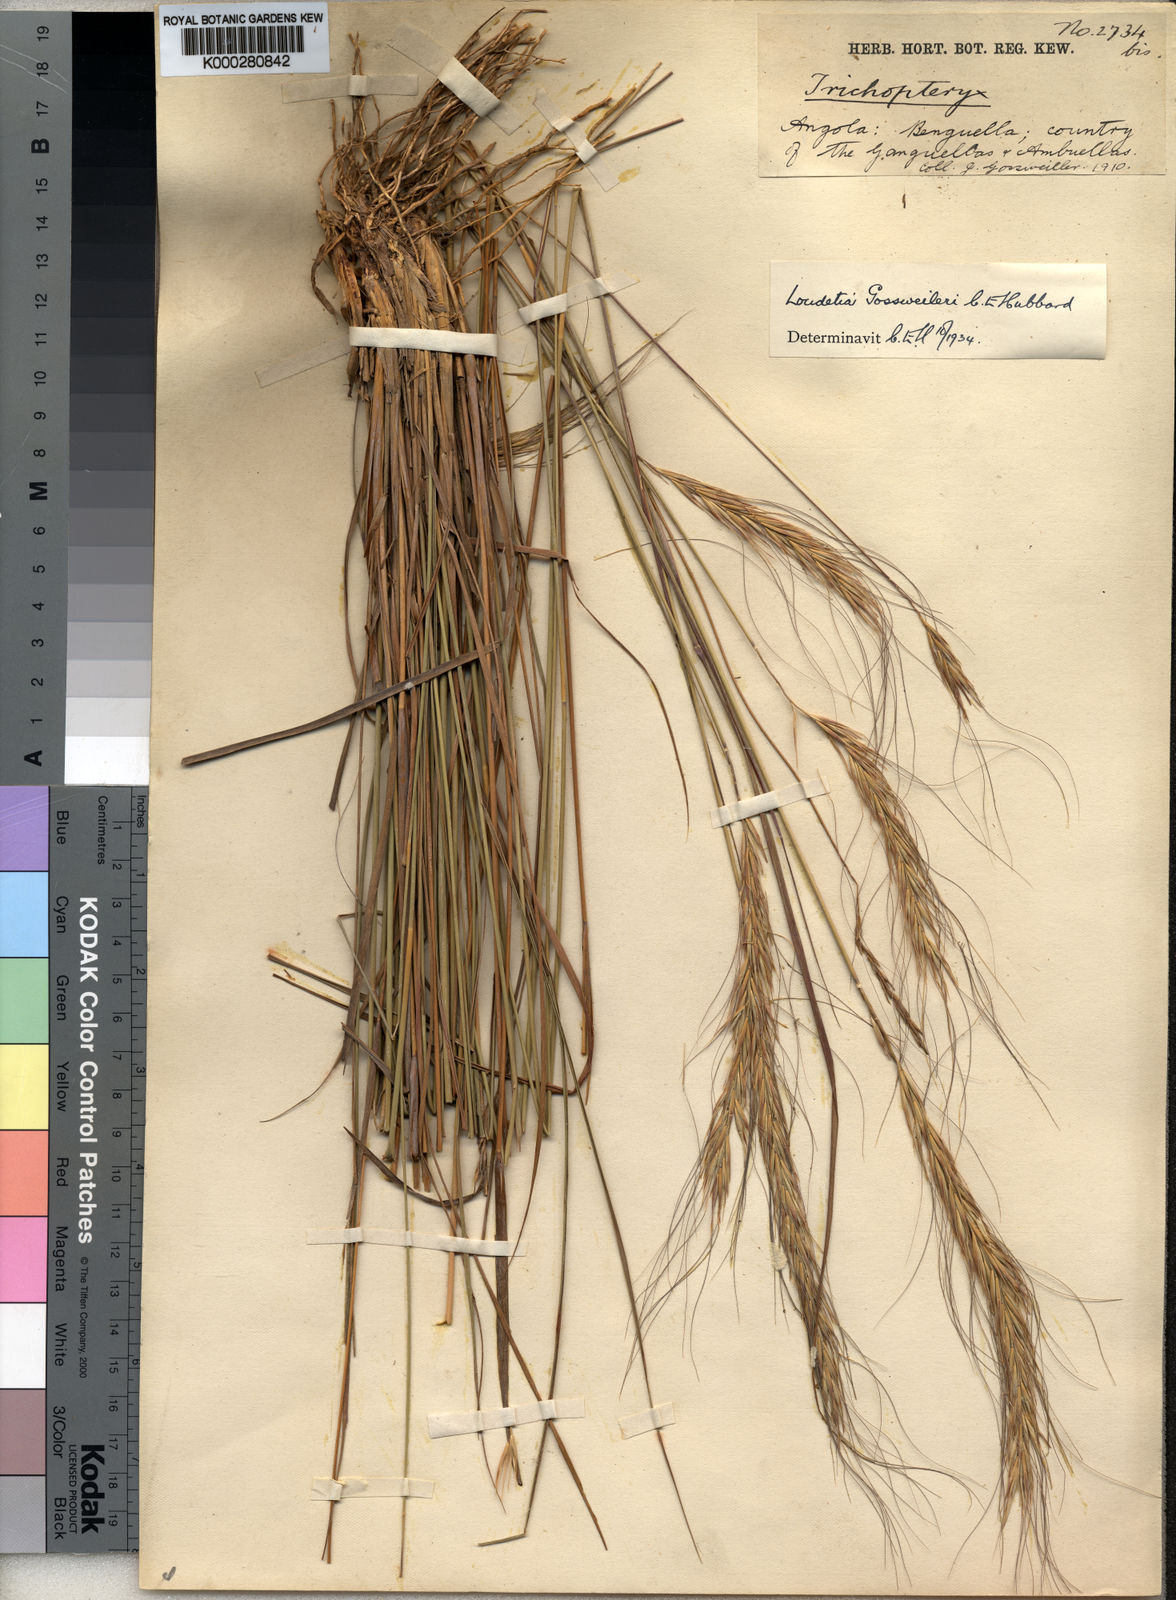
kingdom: Plantae
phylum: Tracheophyta
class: Liliopsida
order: Poales
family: Poaceae
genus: Loudetia
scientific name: Loudetia densispica
